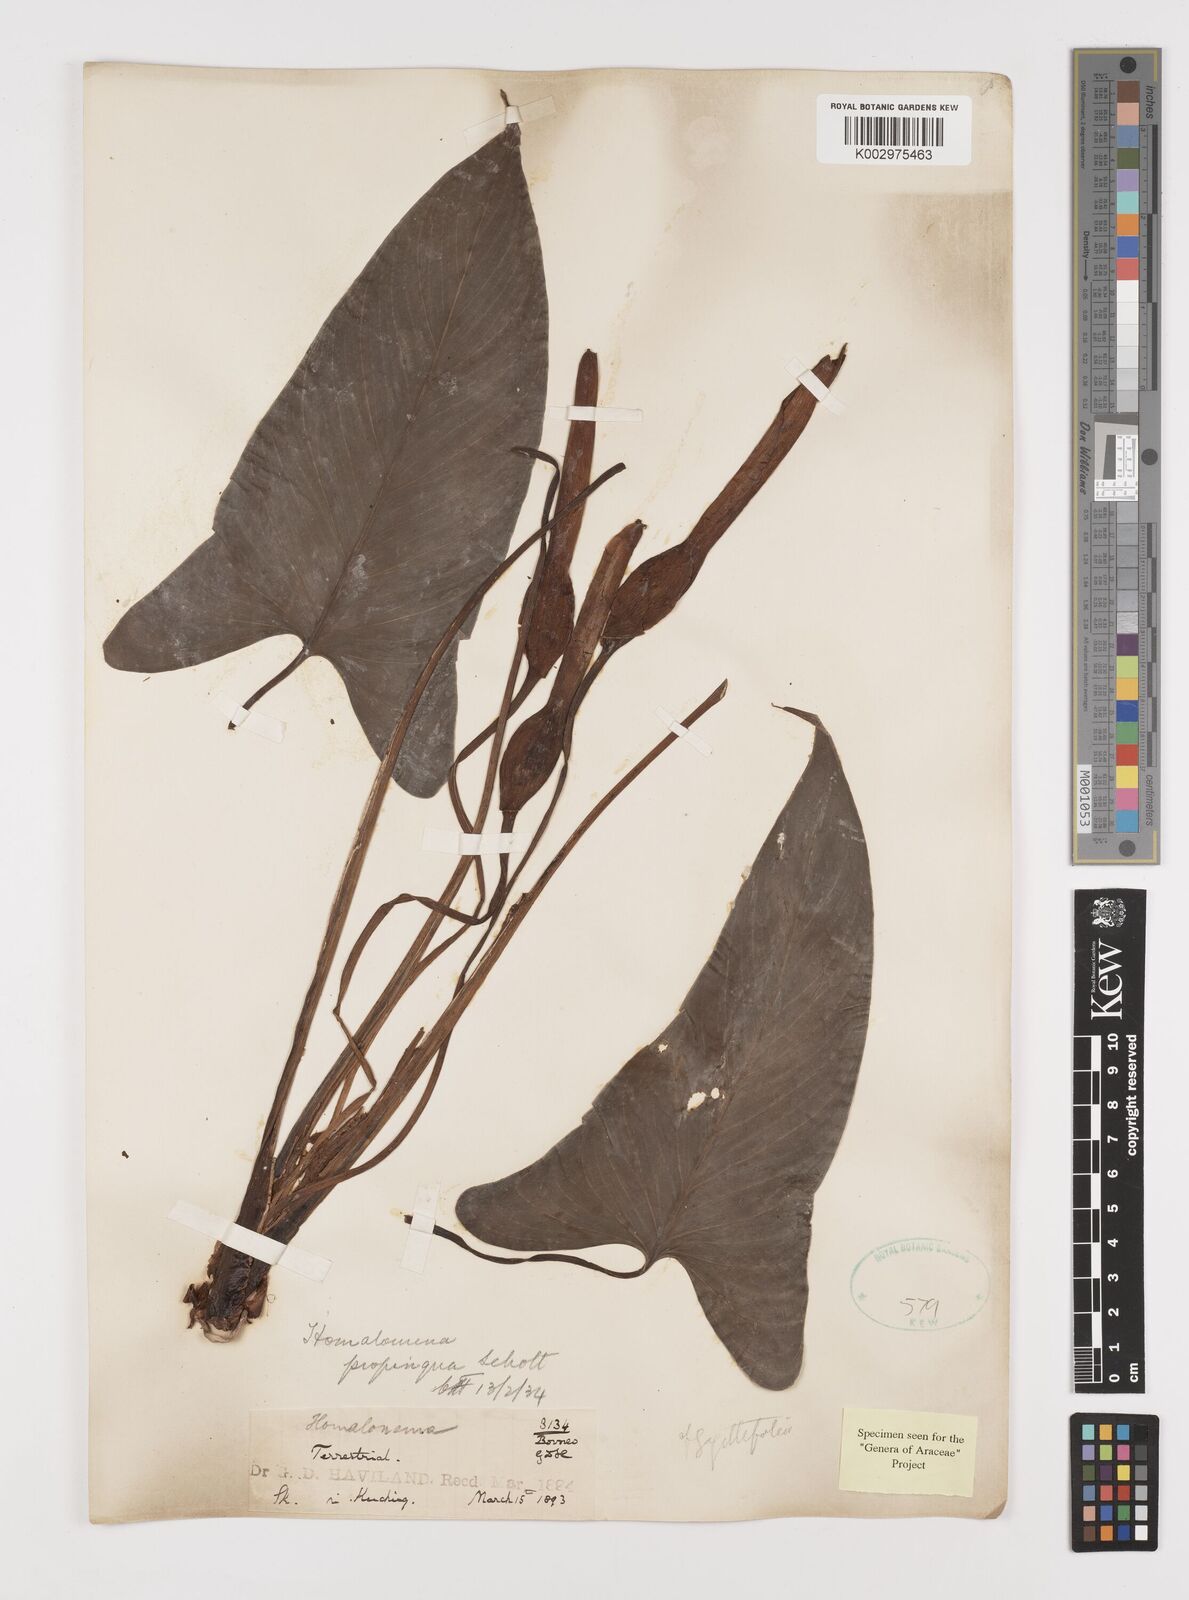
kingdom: Plantae
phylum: Tracheophyta
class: Liliopsida
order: Alismatales
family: Araceae
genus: Homalomena
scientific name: Homalomena humilis
